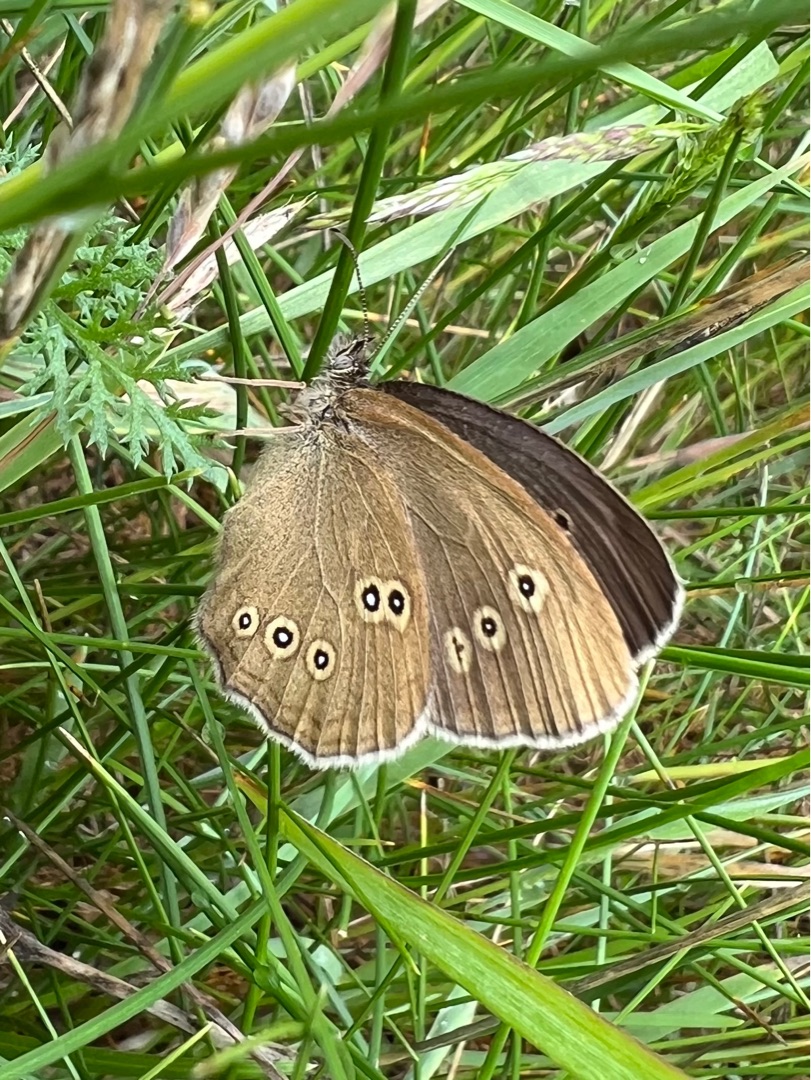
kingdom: Animalia
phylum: Arthropoda
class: Insecta
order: Lepidoptera
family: Nymphalidae
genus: Aphantopus
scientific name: Aphantopus hyperantus
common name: Engrandøje
